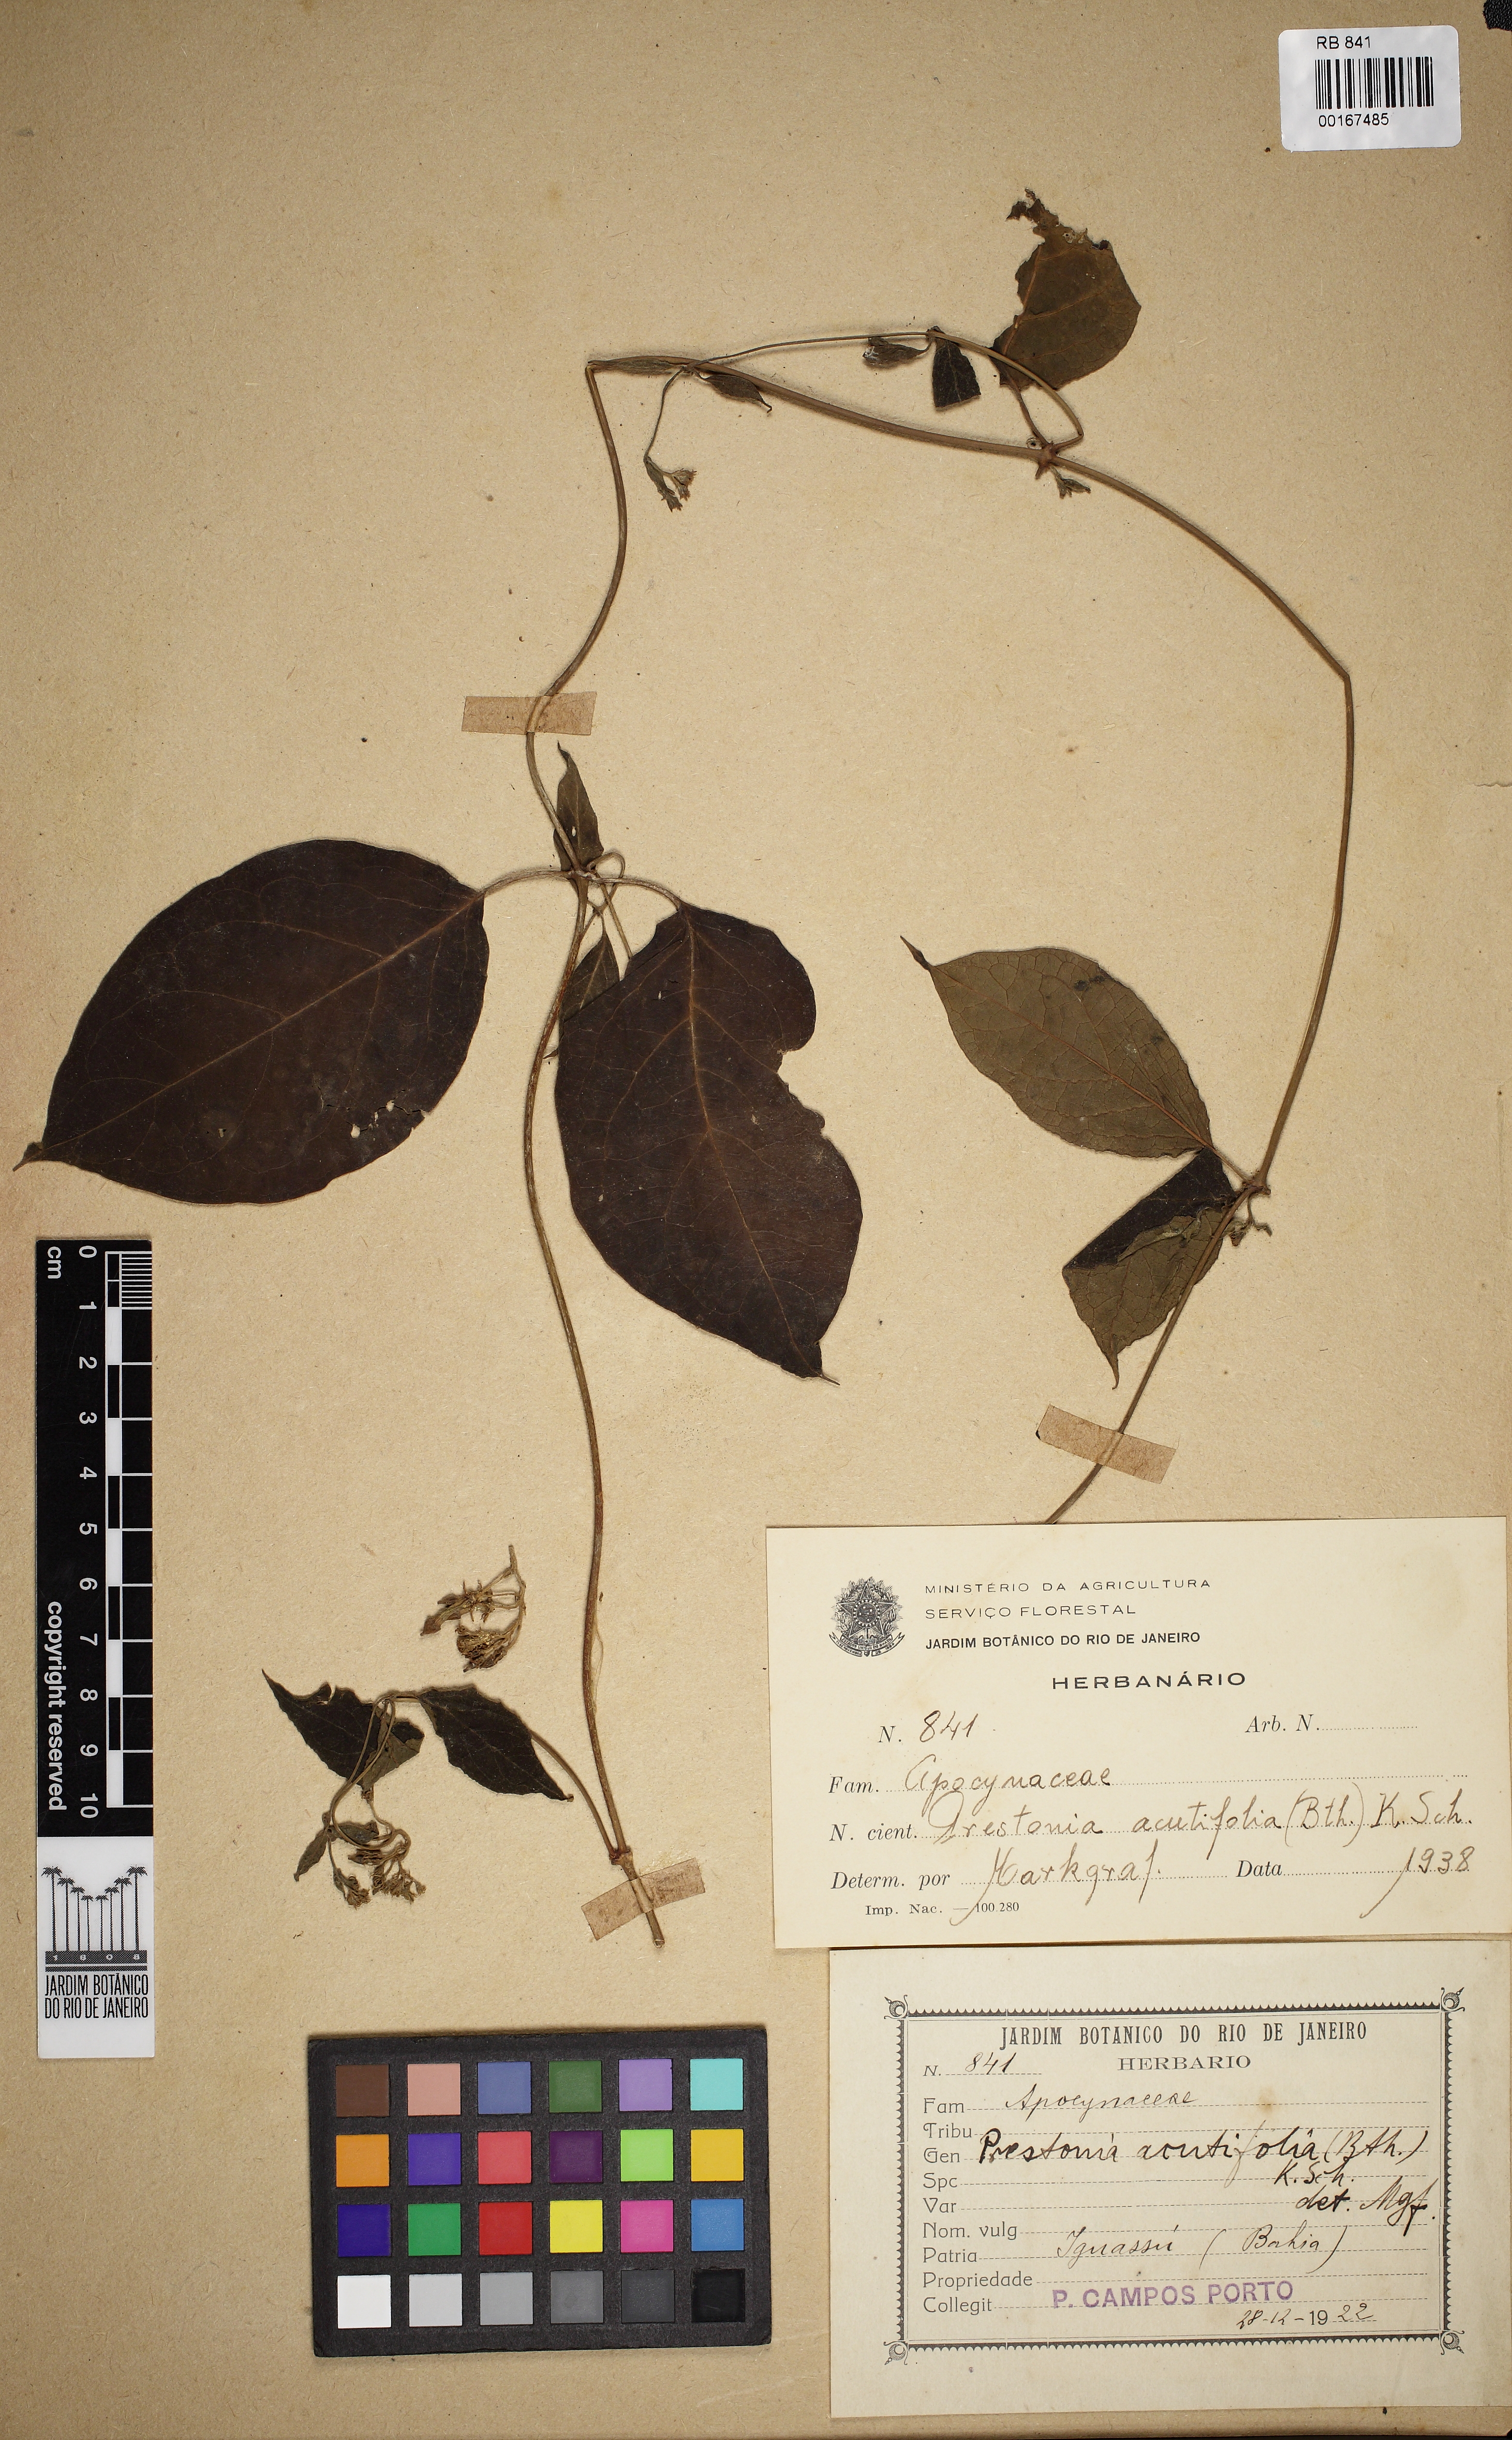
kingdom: Plantae
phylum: Tracheophyta
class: Magnoliopsida
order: Gentianales
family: Apocynaceae
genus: Prestonia
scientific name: Prestonia quinquangularis
